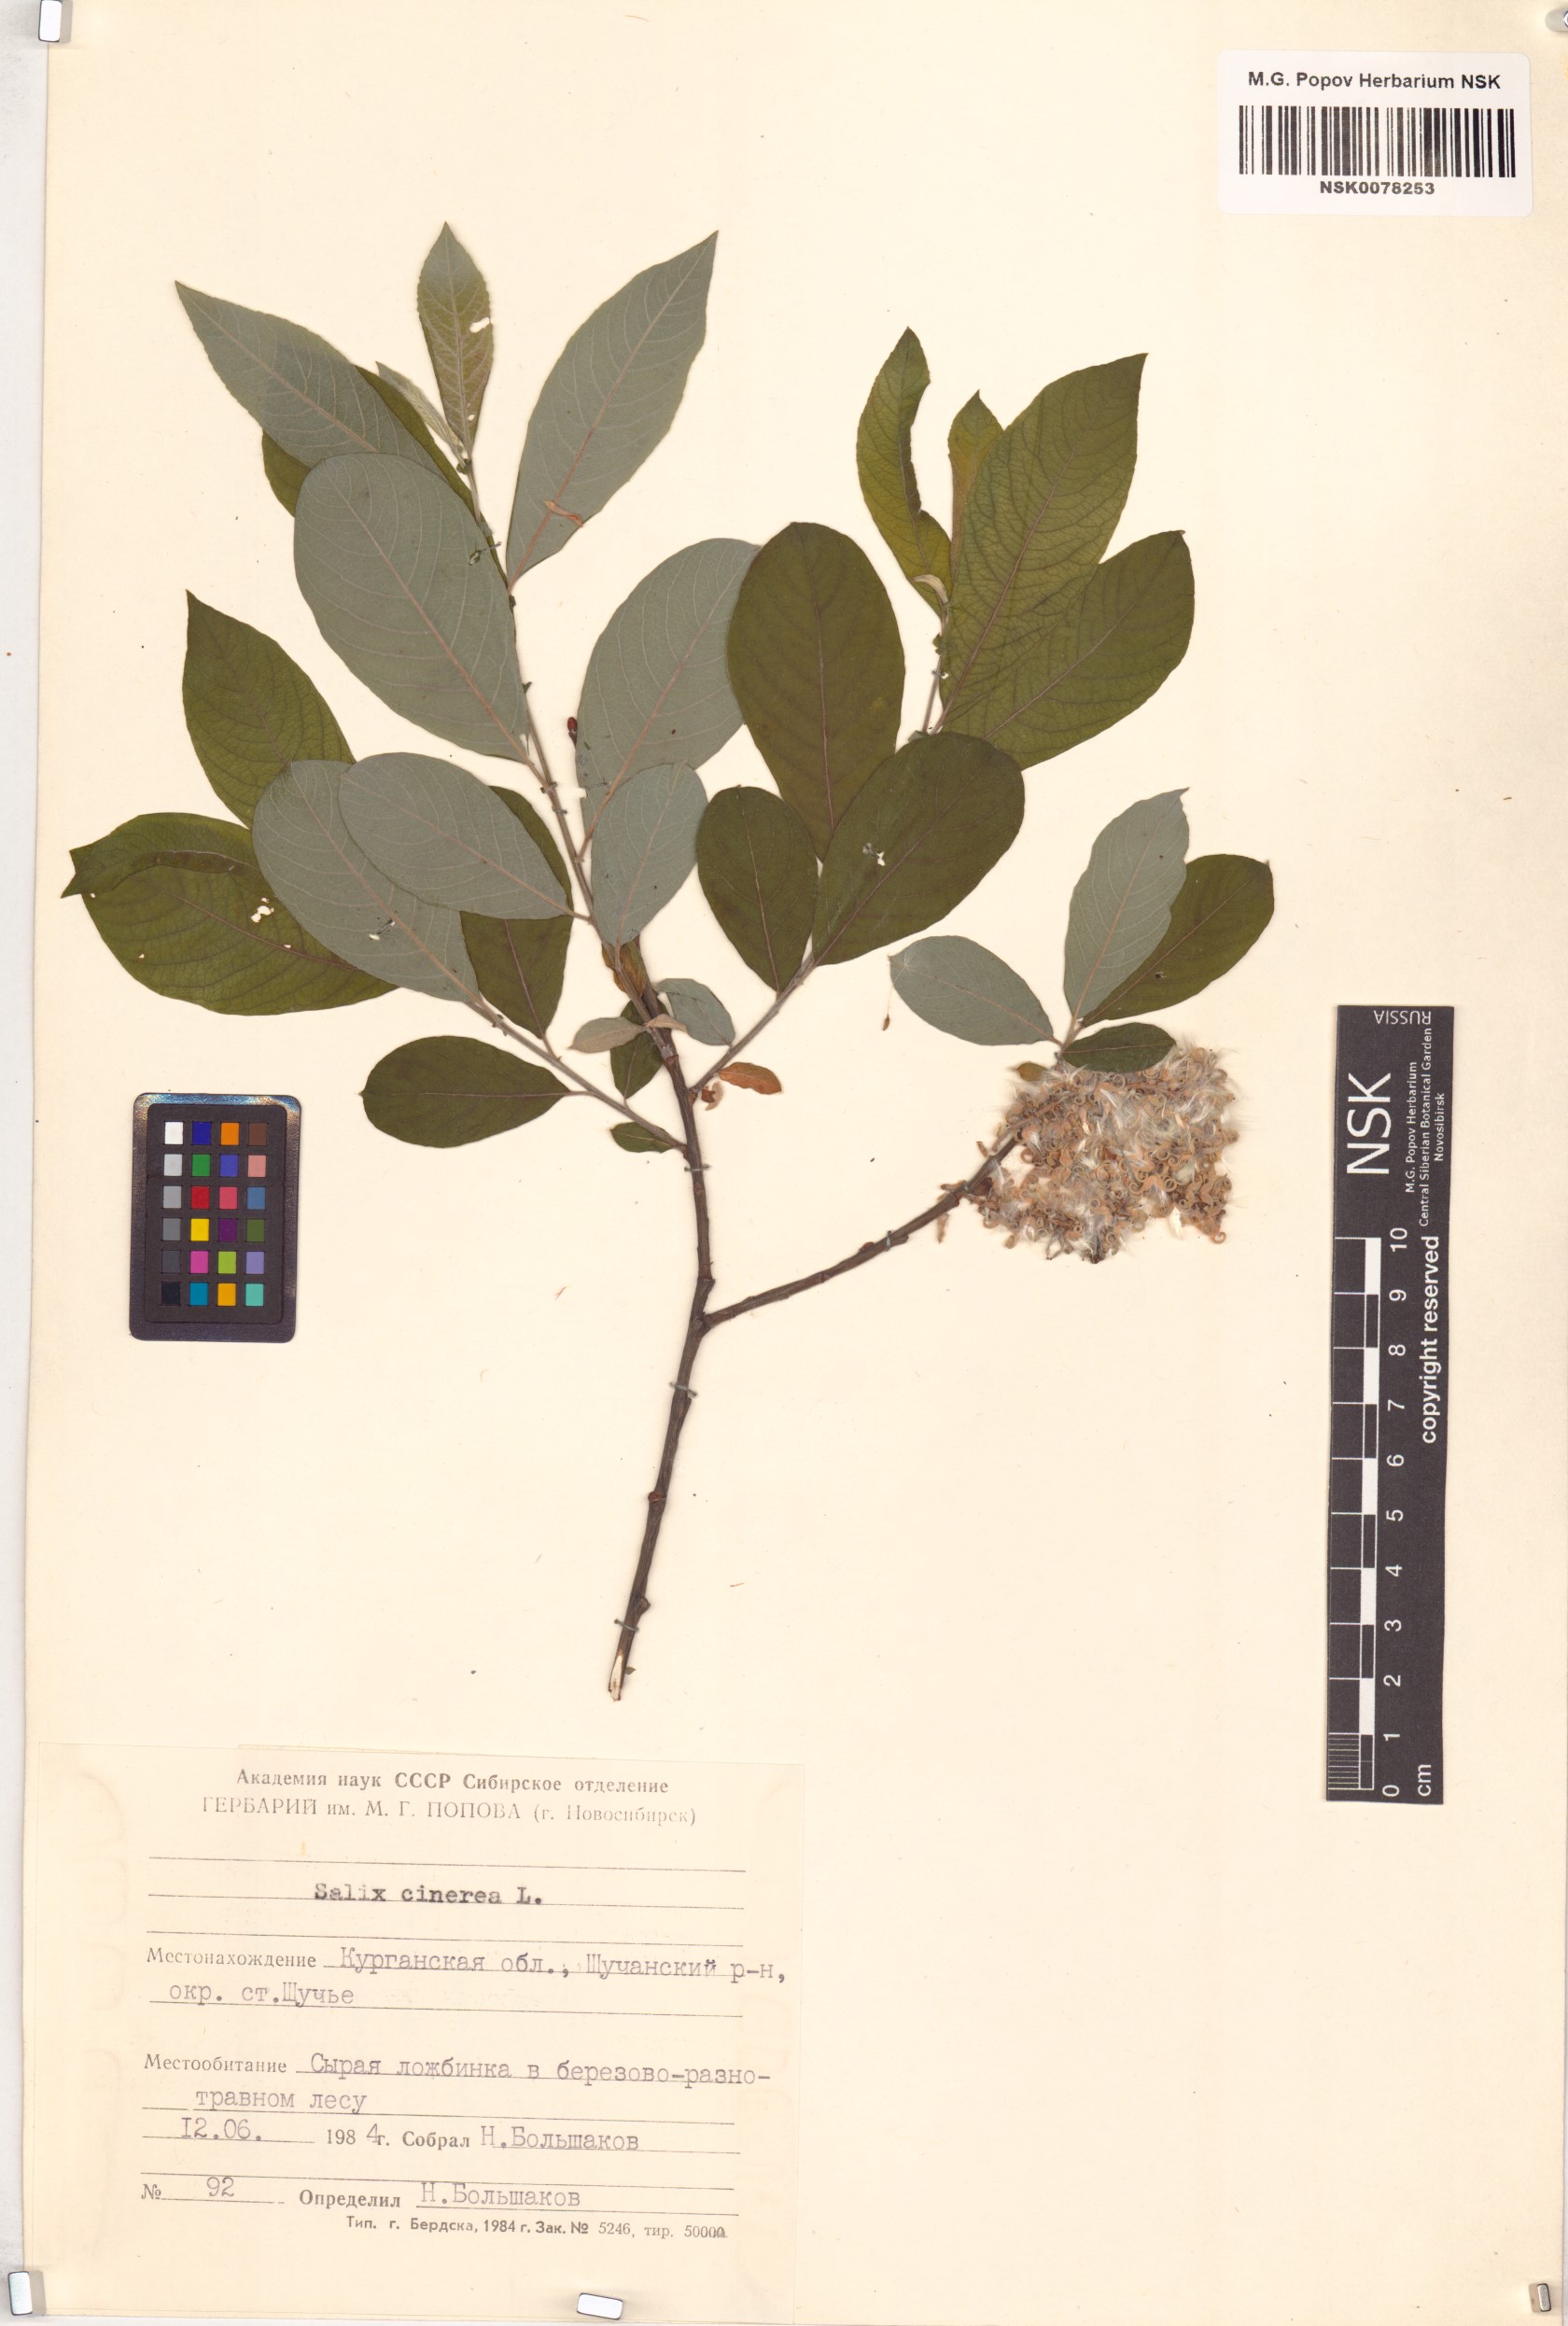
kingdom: Plantae
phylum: Tracheophyta
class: Magnoliopsida
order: Malpighiales
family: Salicaceae
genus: Salix
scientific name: Salix cinerea
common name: Common sallow
